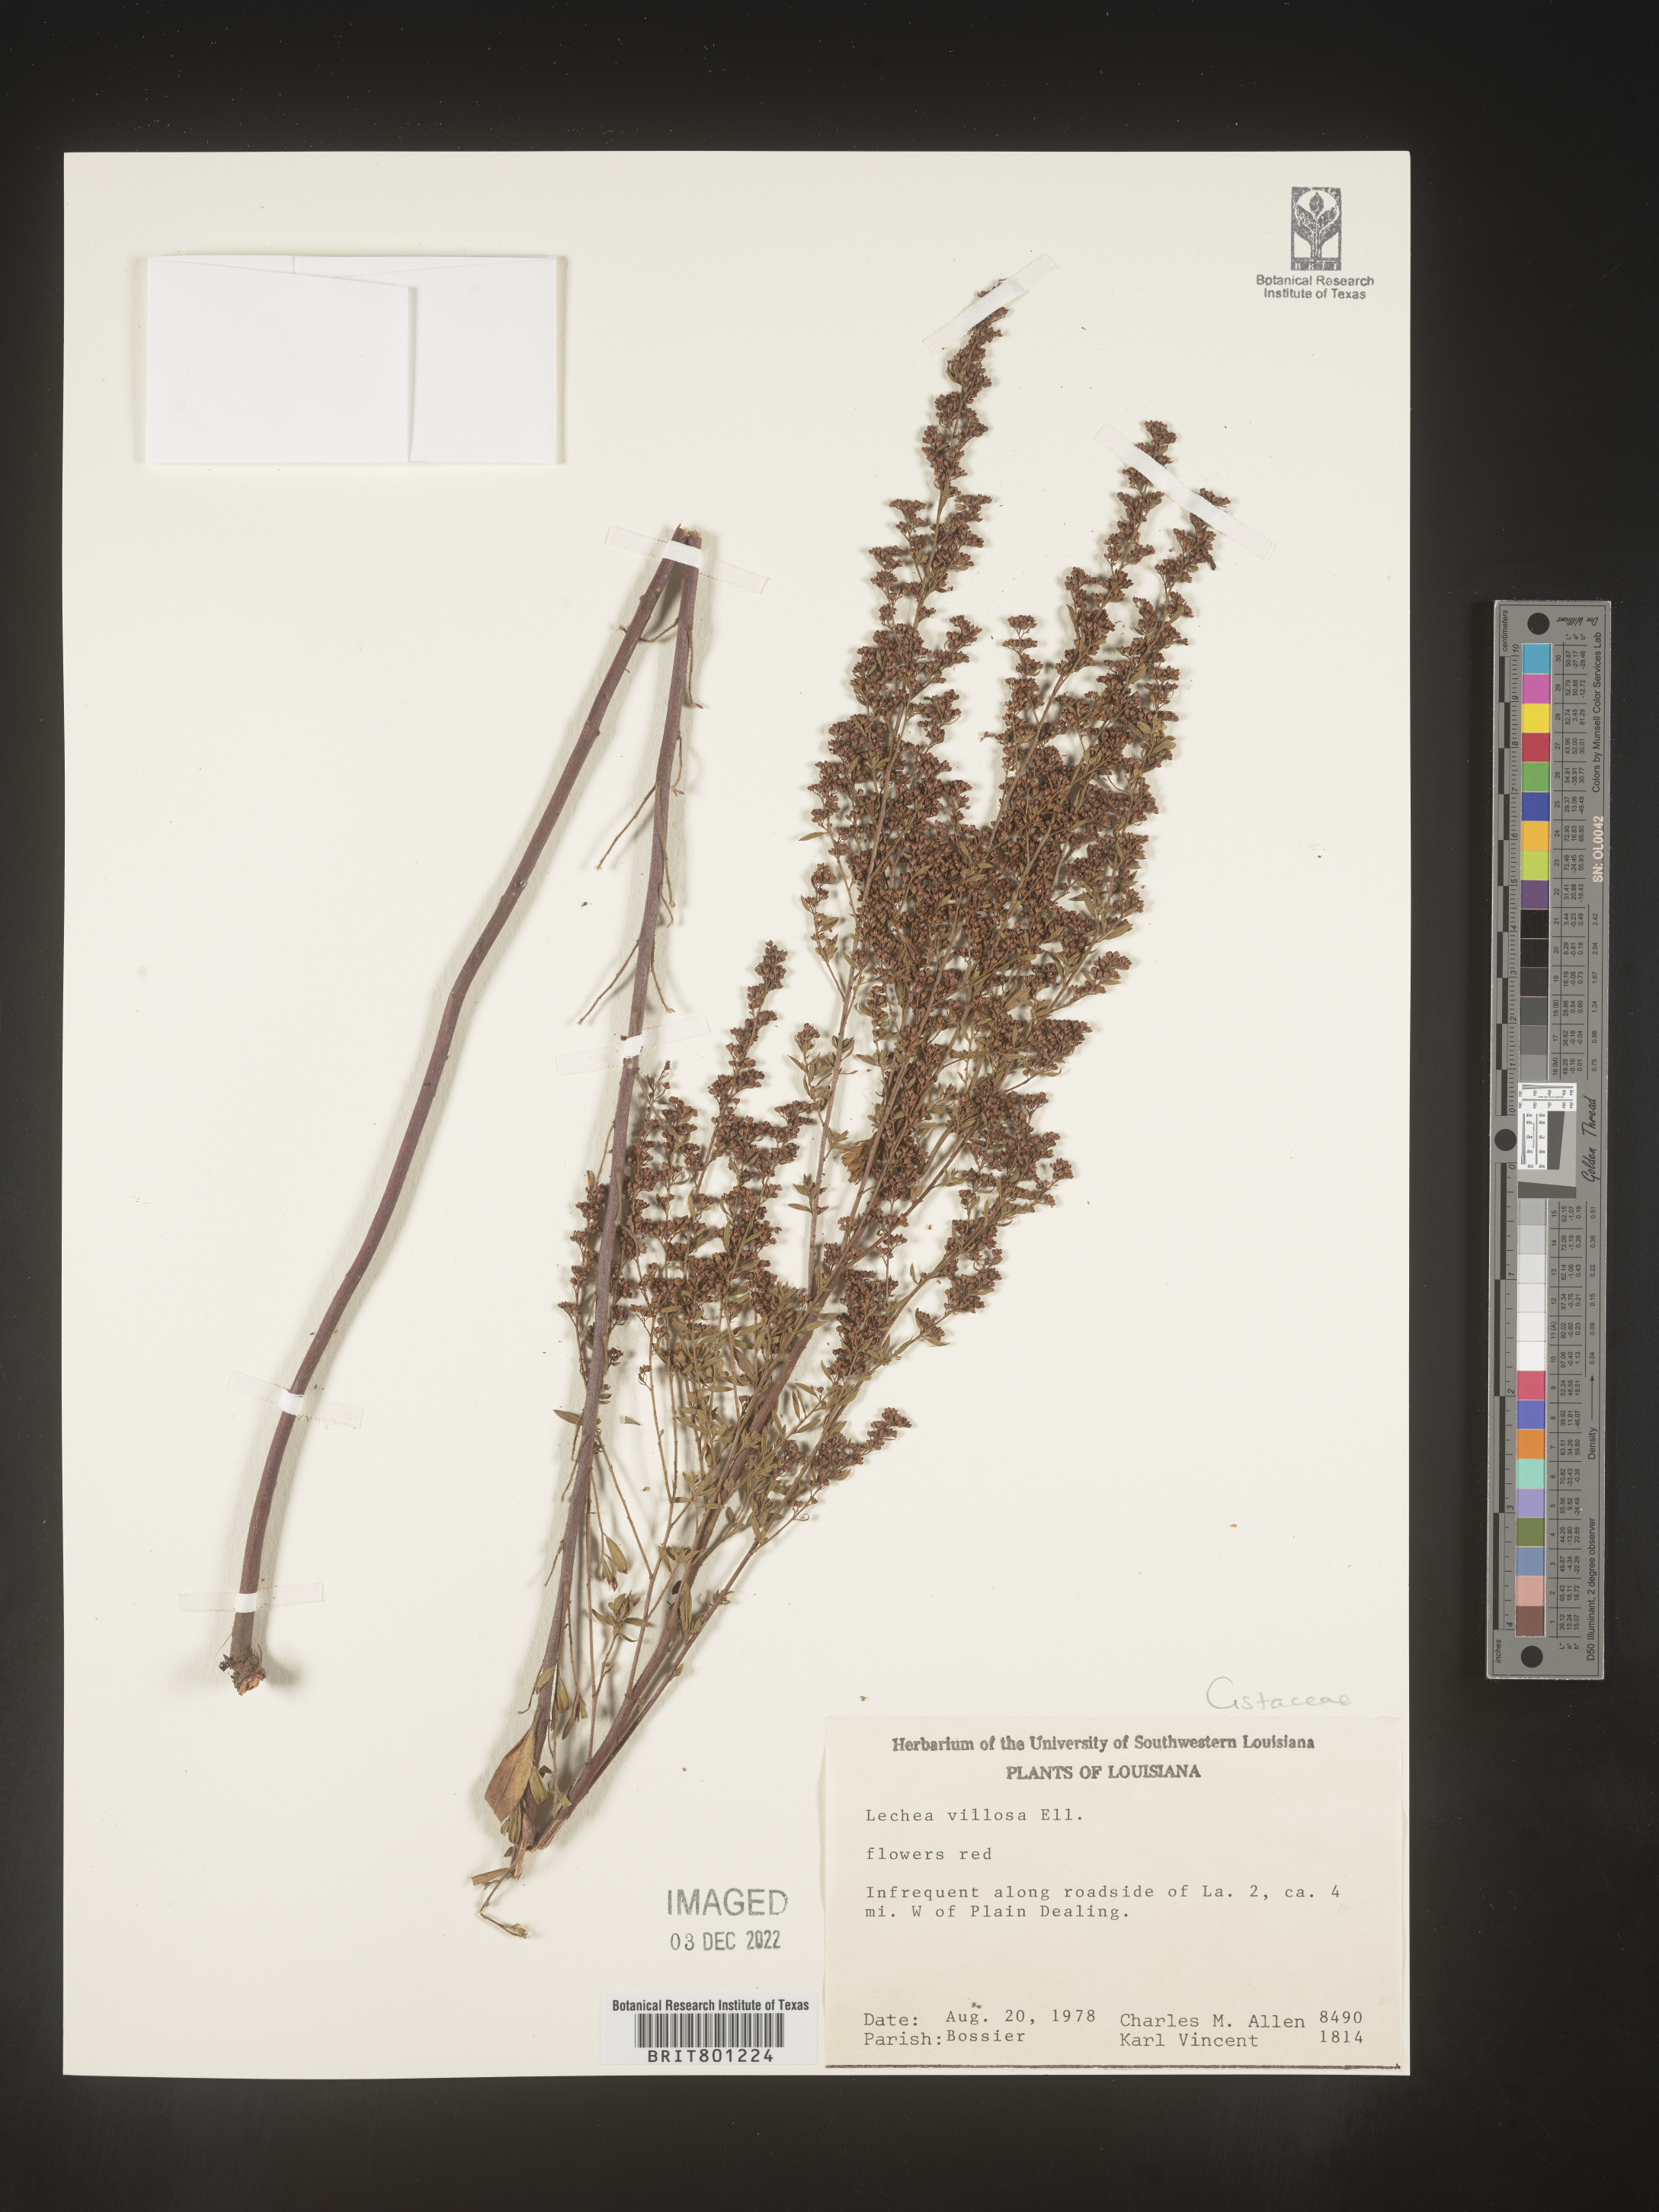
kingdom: Plantae
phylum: Tracheophyta
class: Magnoliopsida
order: Malvales
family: Cistaceae
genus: Lechea
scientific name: Lechea mucronata
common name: Hairy pinweed
